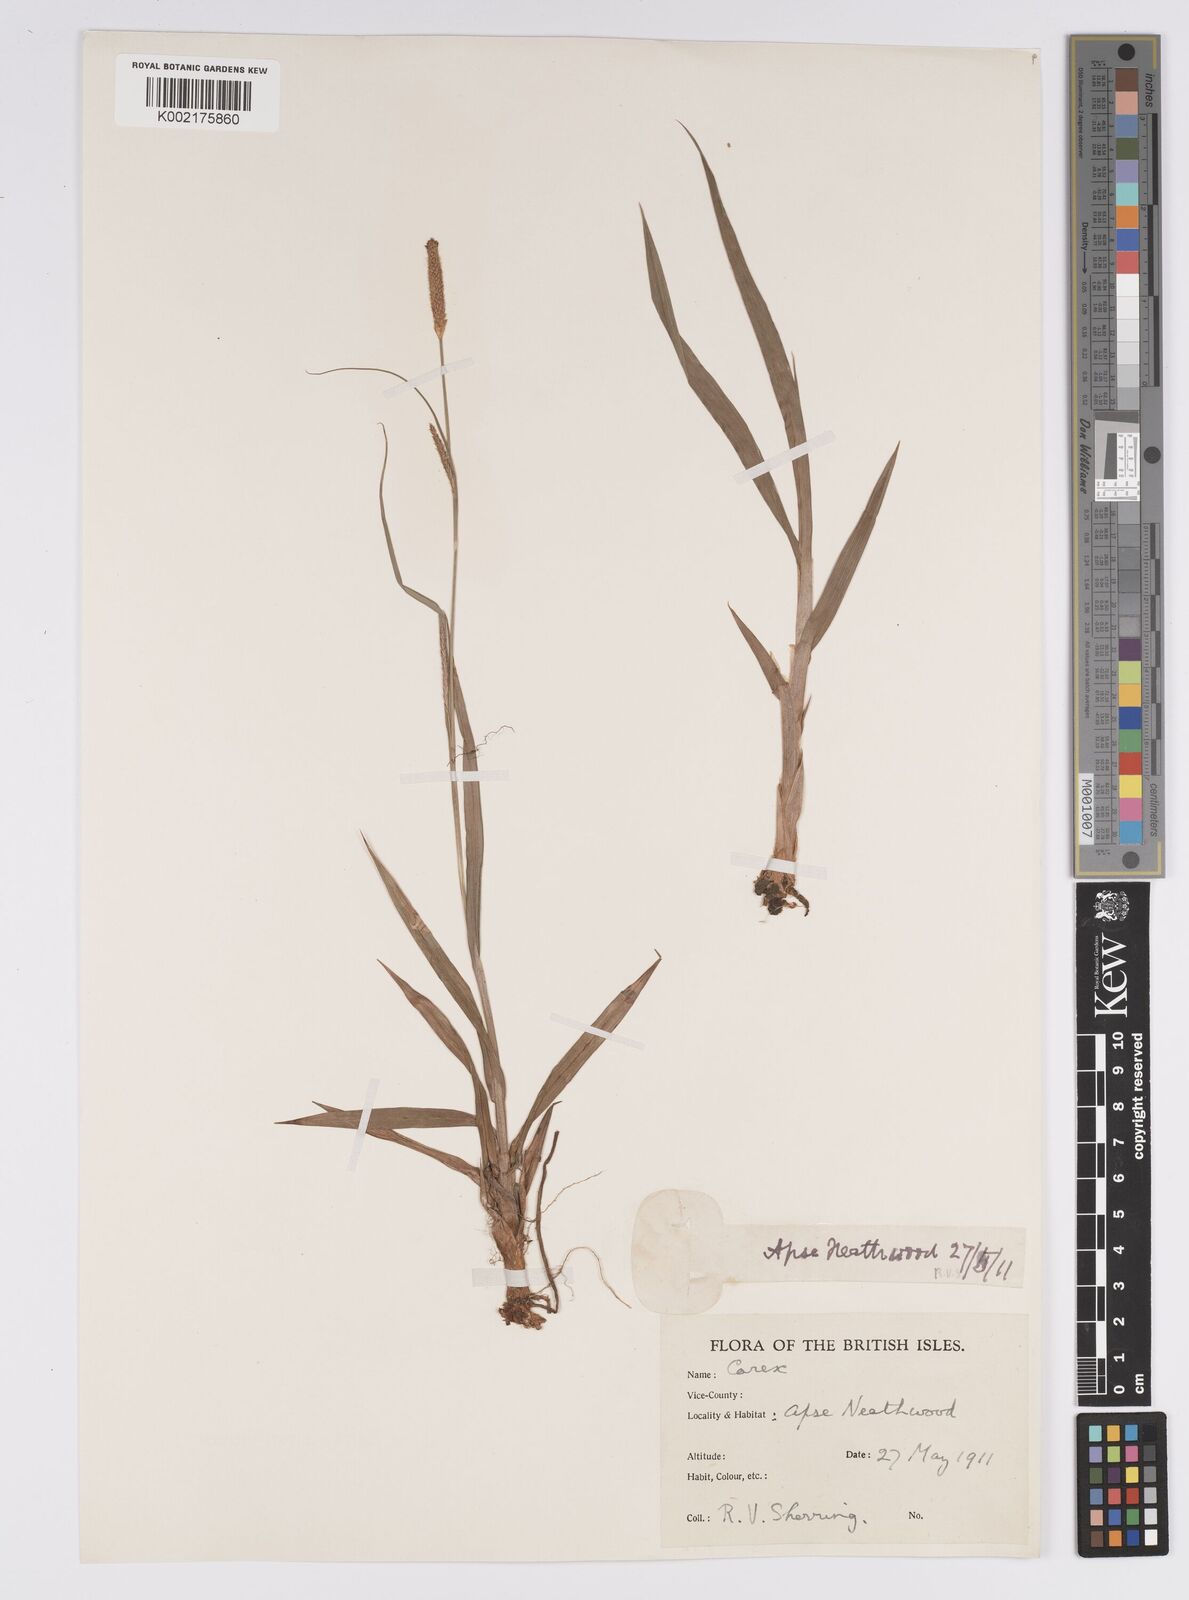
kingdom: Plantae
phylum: Tracheophyta
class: Liliopsida
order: Poales
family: Cyperaceae
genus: Carex
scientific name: Carex laevigata
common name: Smooth-stalked sedge
